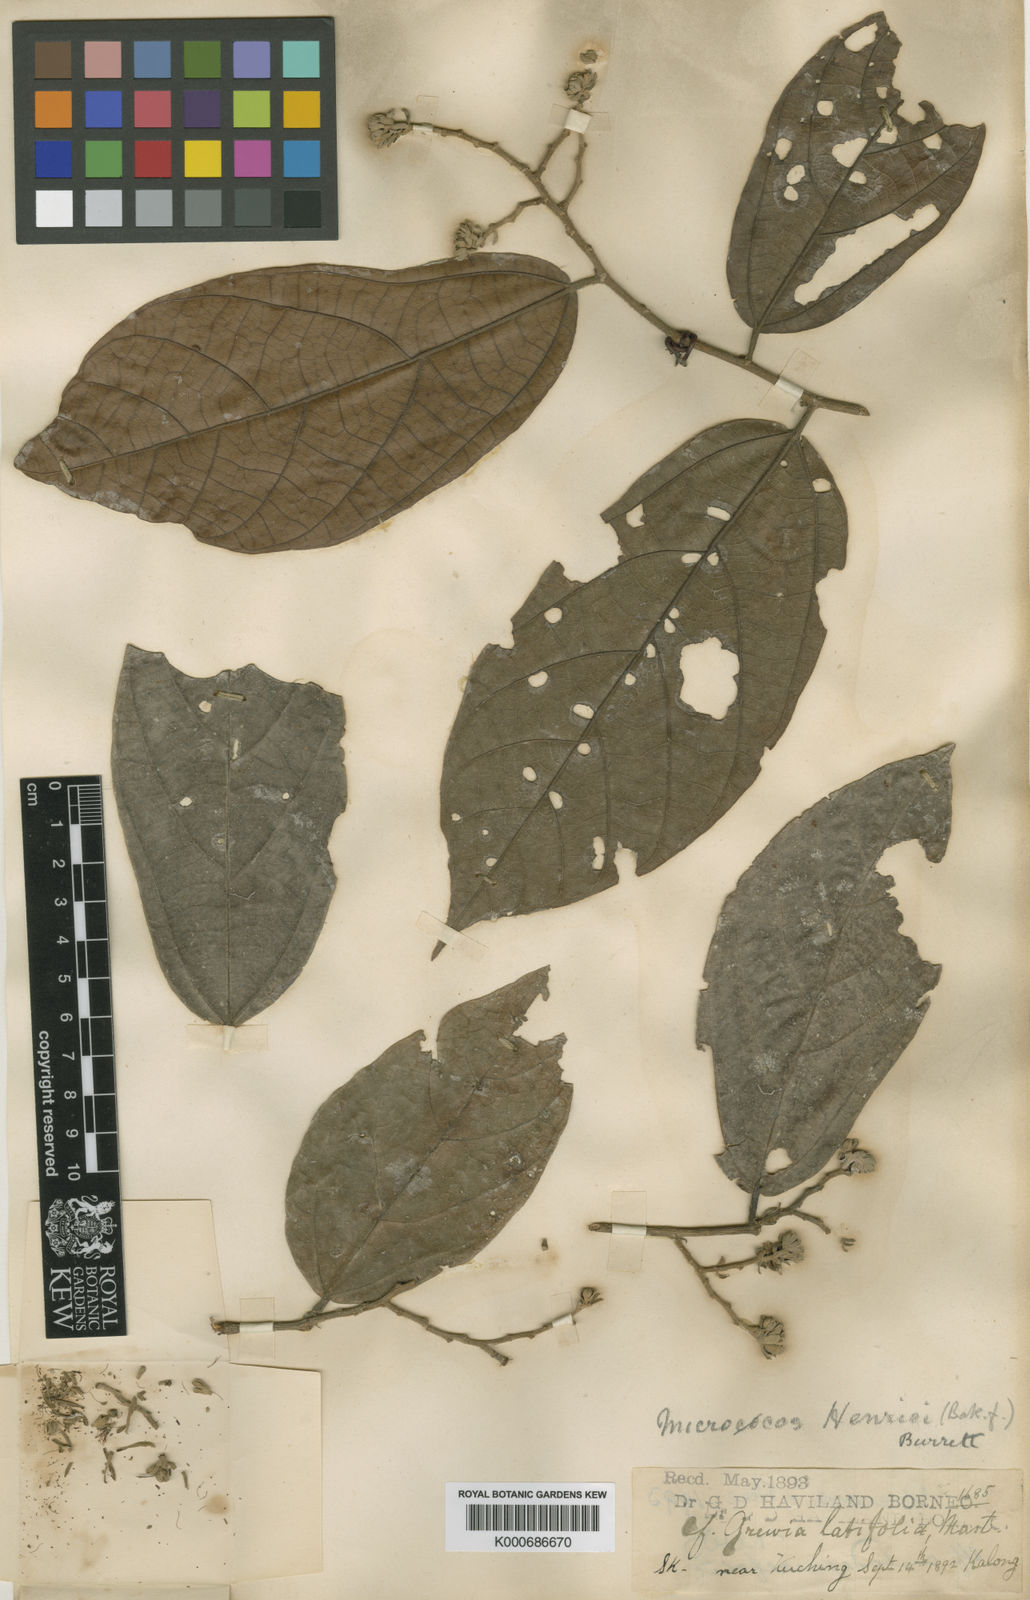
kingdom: Plantae
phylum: Tracheophyta
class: Magnoliopsida
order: Malvales
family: Malvaceae
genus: Microcos
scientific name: Microcos henrici
